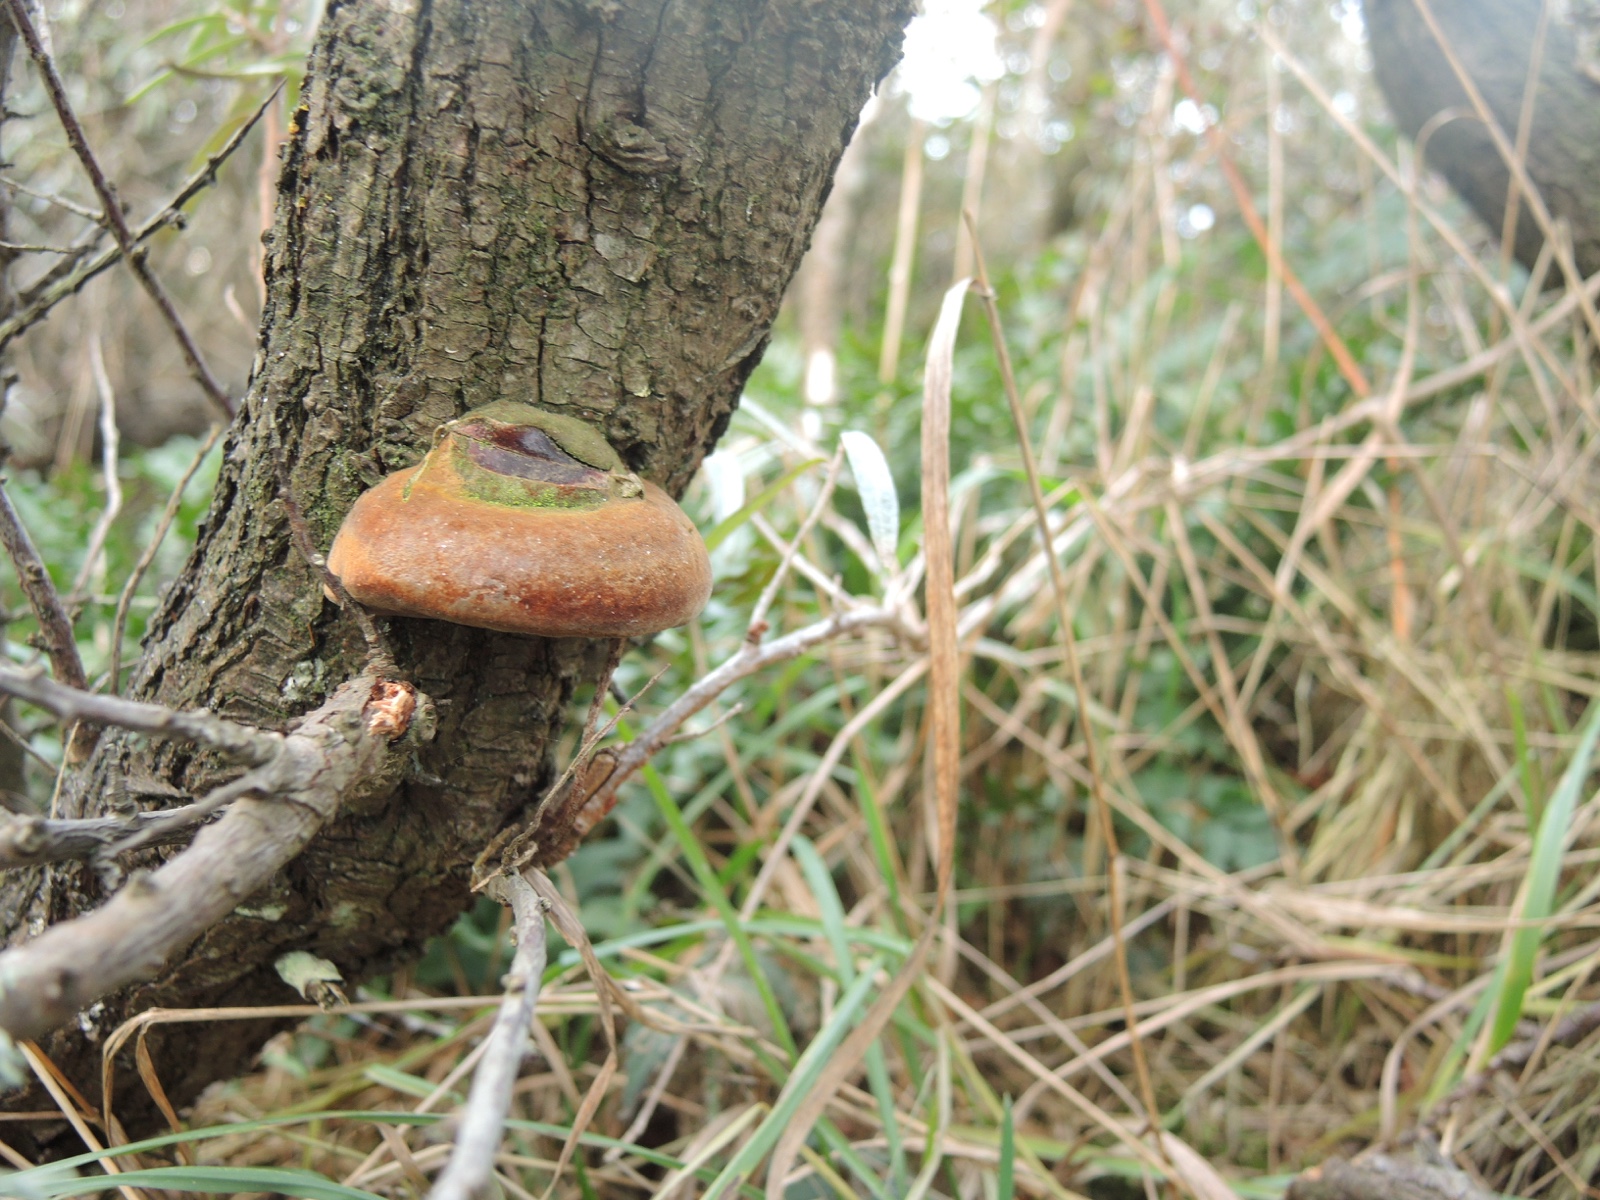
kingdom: Fungi
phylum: Basidiomycota
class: Agaricomycetes
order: Hymenochaetales
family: Hymenochaetaceae
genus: Fomitiporia
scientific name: Fomitiporia hippophaeicola
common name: havtorn-ildporesvamp
